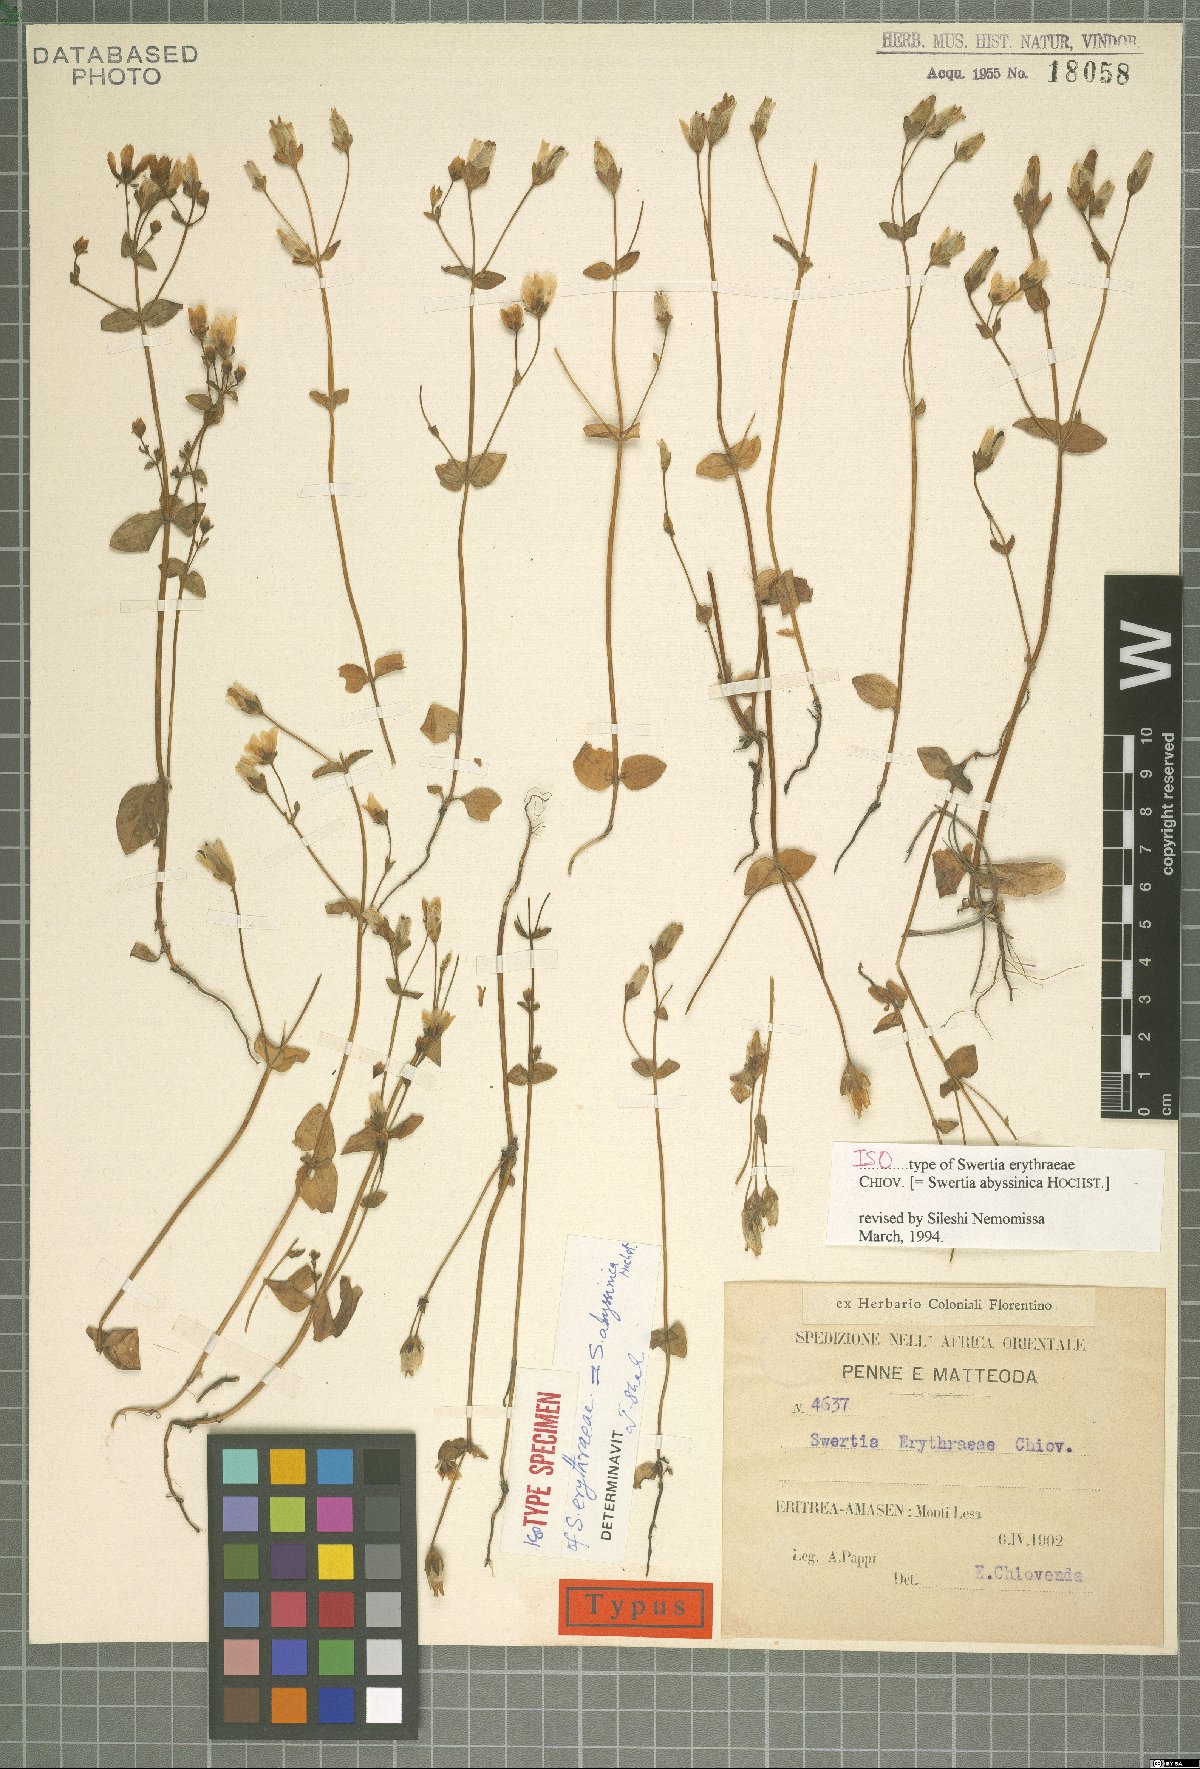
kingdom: Plantae
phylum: Tracheophyta
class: Magnoliopsida
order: Gentianales
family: Gentianaceae
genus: Swertia
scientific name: Swertia abyssinica
